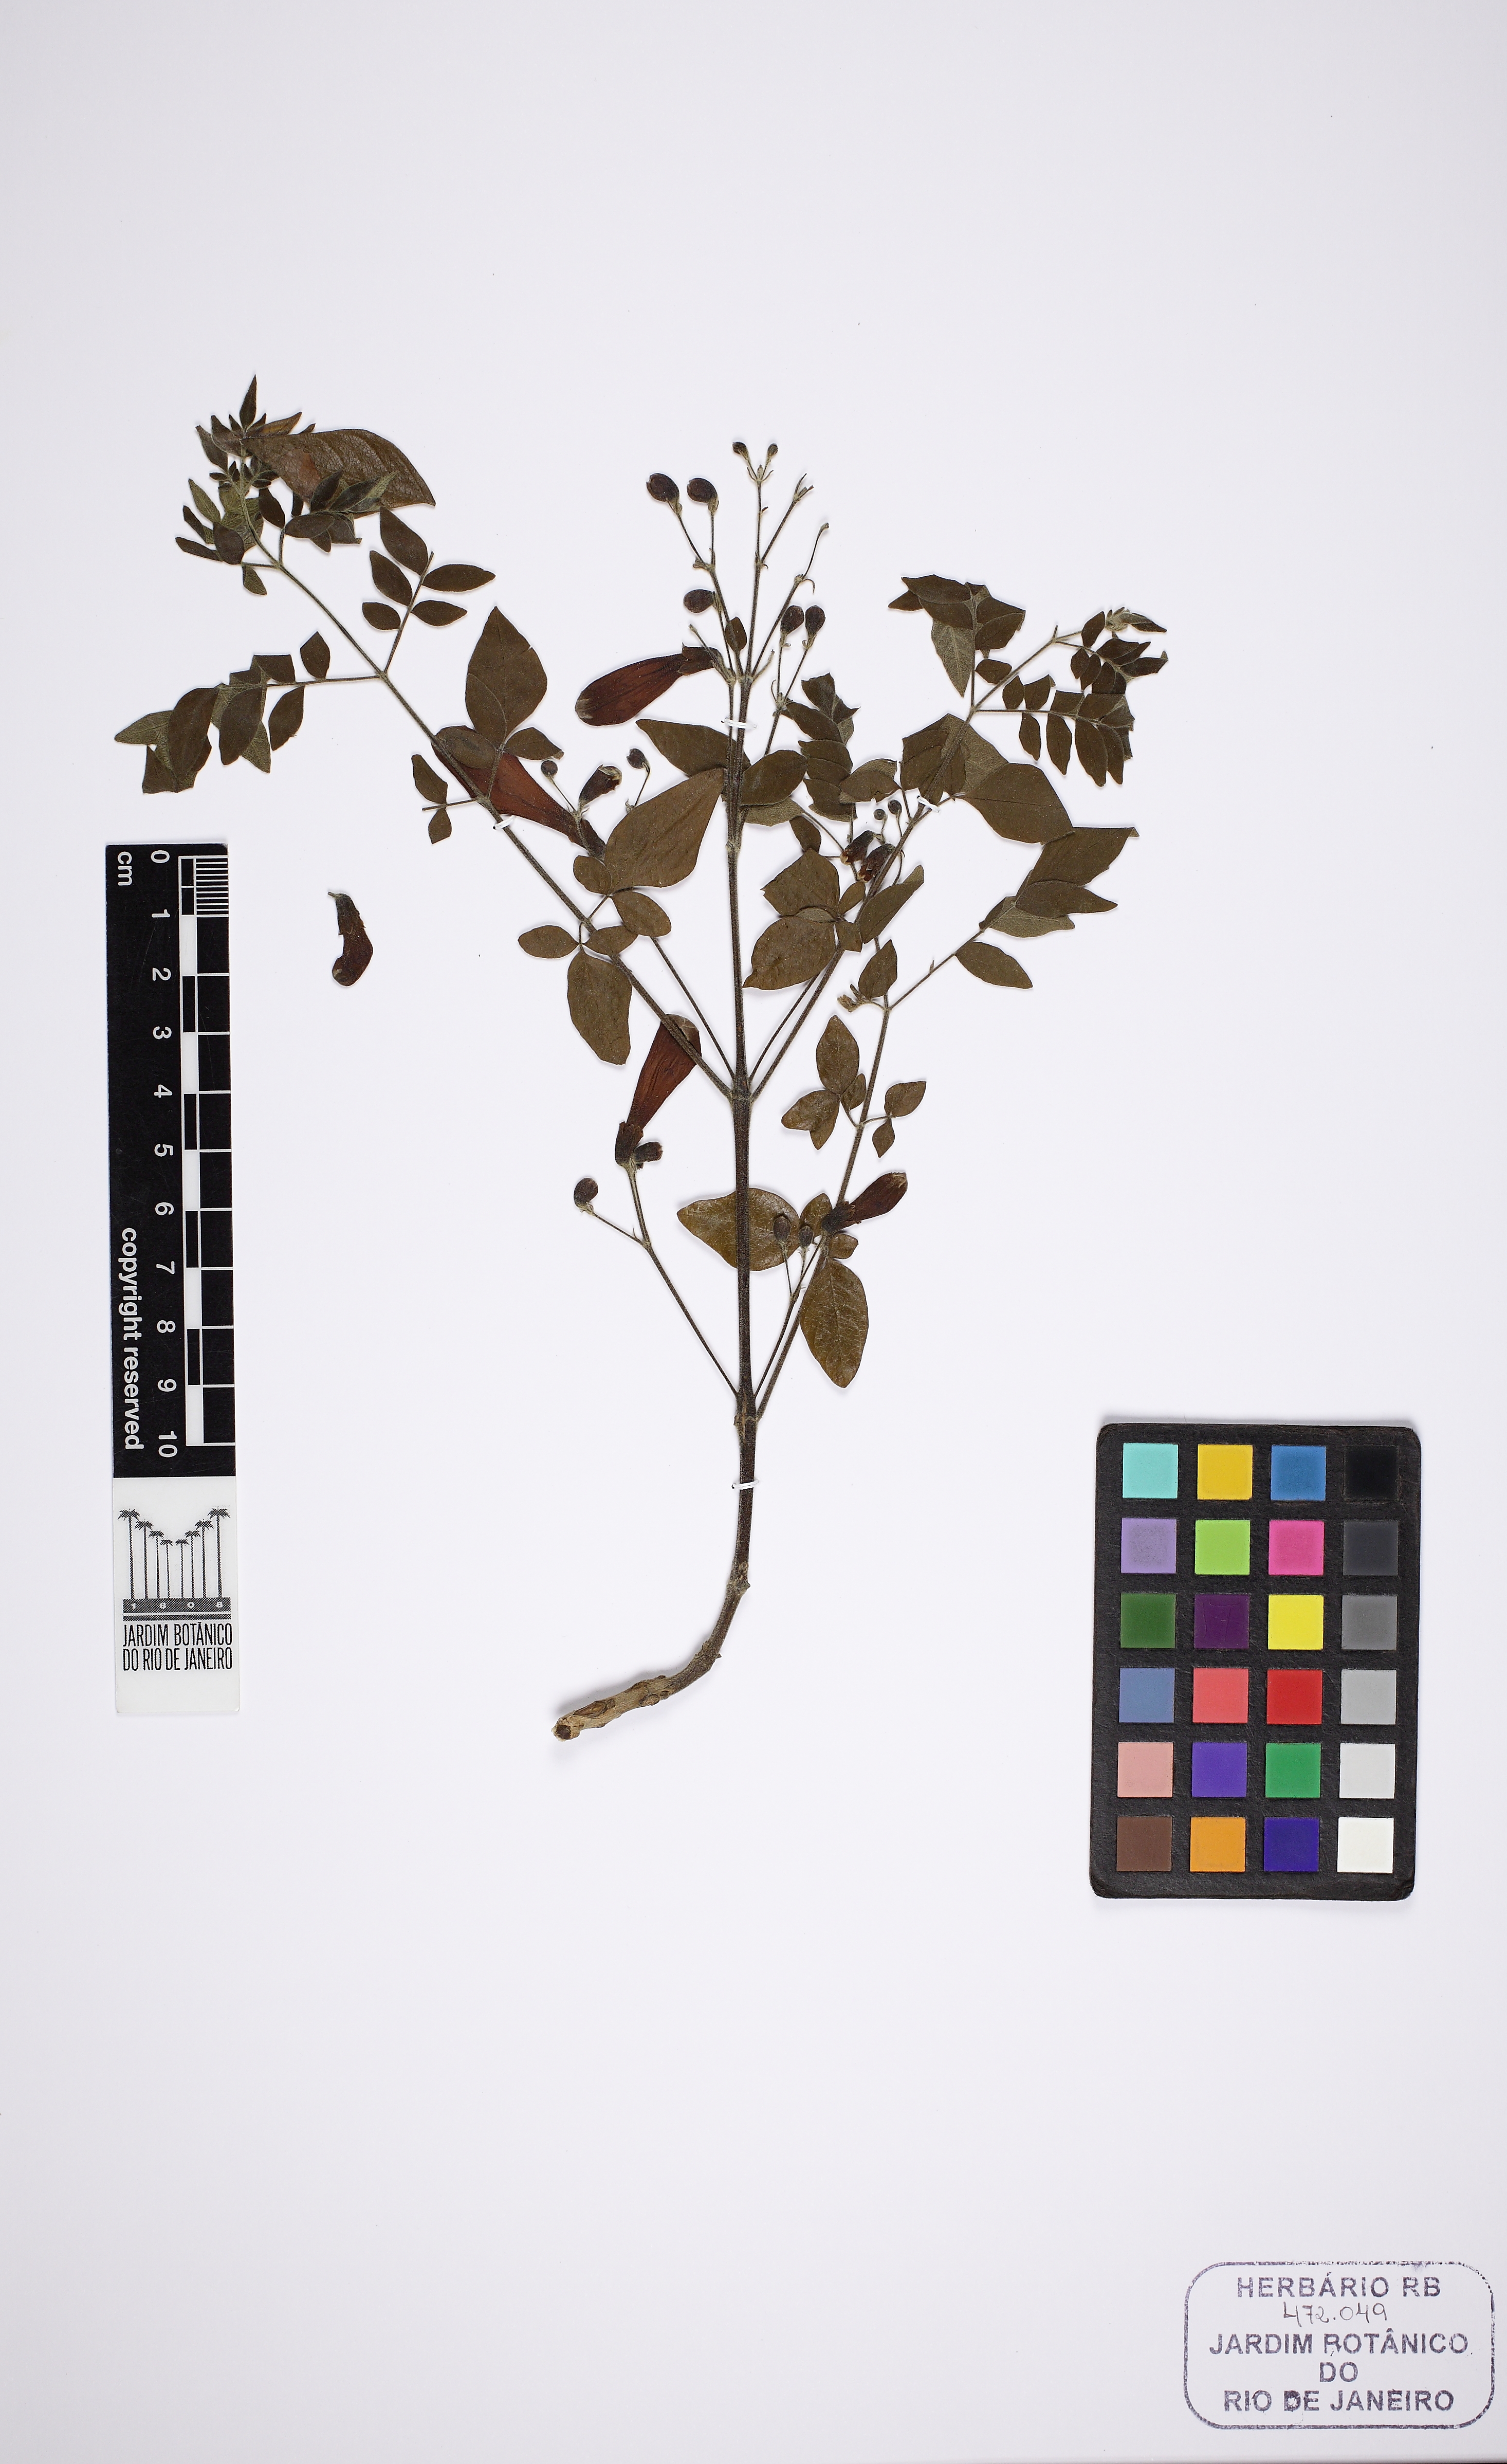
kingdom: Plantae
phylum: Tracheophyta
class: Magnoliopsida
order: Lamiales
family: Bignoniaceae
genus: Jacaranda
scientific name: Jacaranda jasminoides
